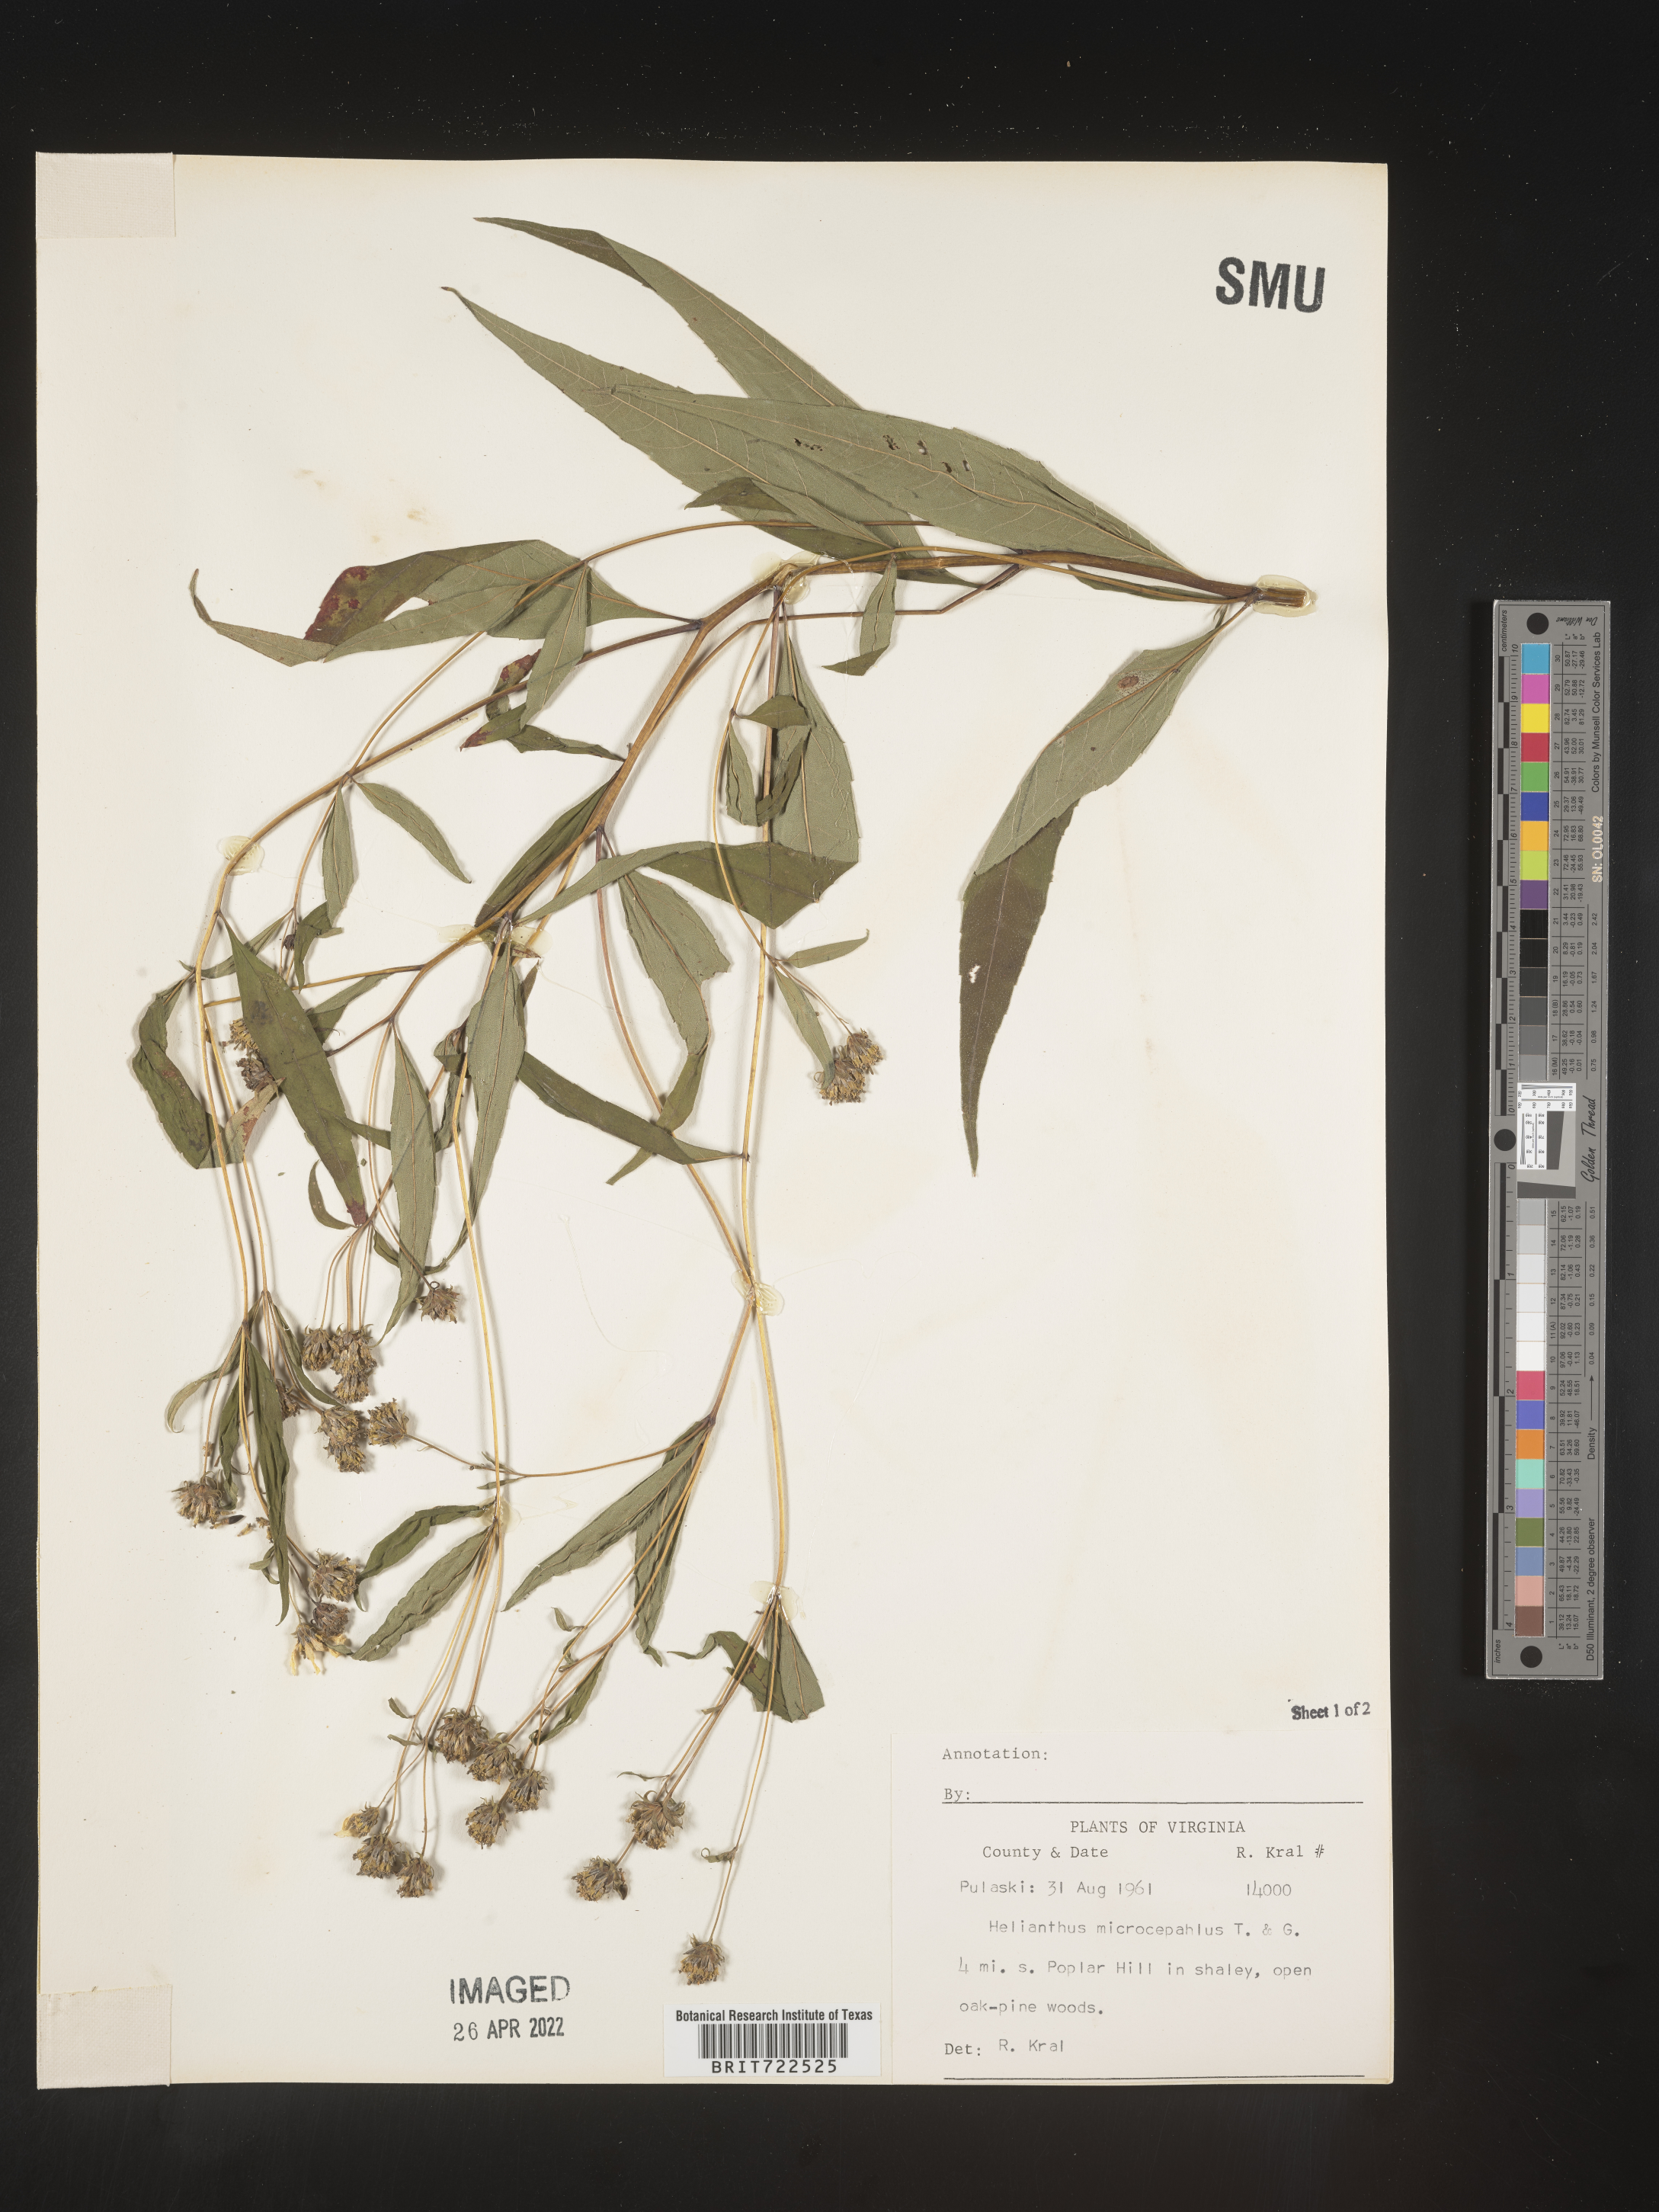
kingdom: Plantae
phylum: Tracheophyta
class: Magnoliopsida
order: Asterales
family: Asteraceae
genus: Helianthus
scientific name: Helianthus microcephalus
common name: Woodland sunflower
